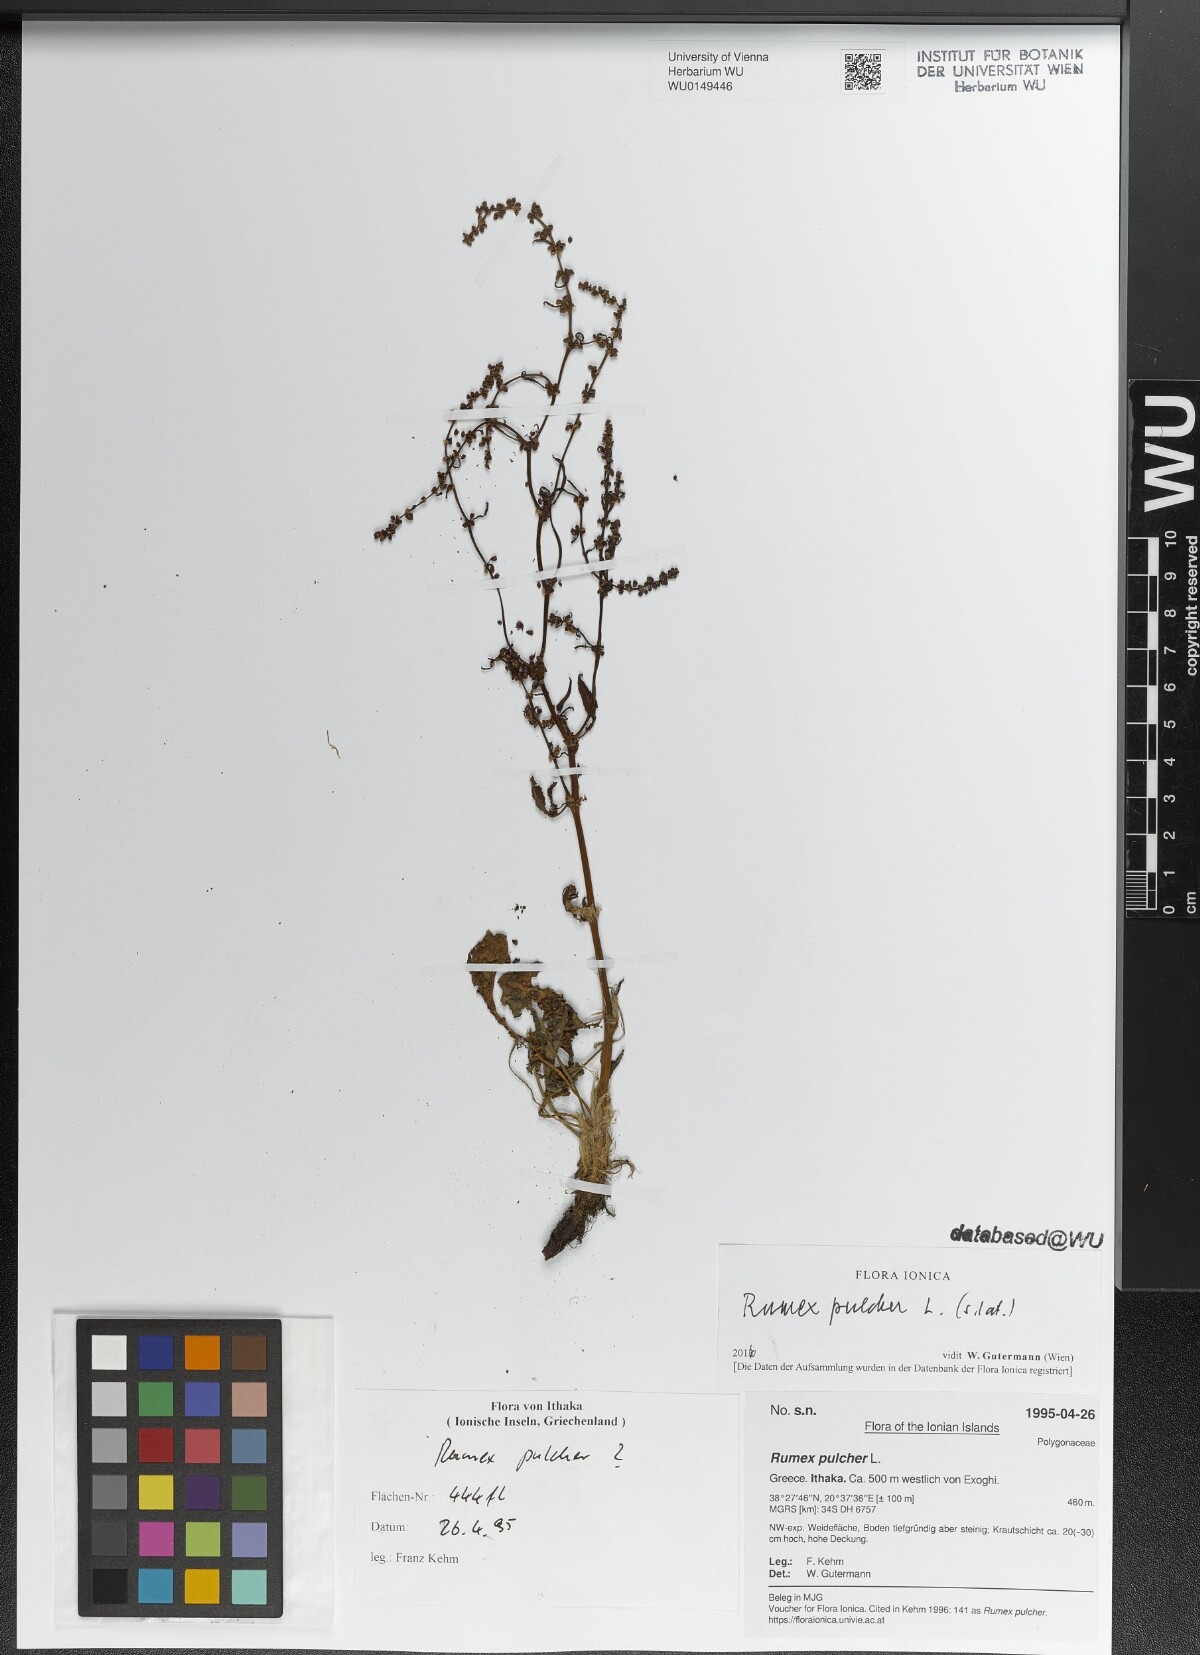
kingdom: Plantae
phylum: Tracheophyta
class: Magnoliopsida
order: Caryophyllales
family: Polygonaceae
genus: Rumex
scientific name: Rumex pulcher
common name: Fiddle dock
